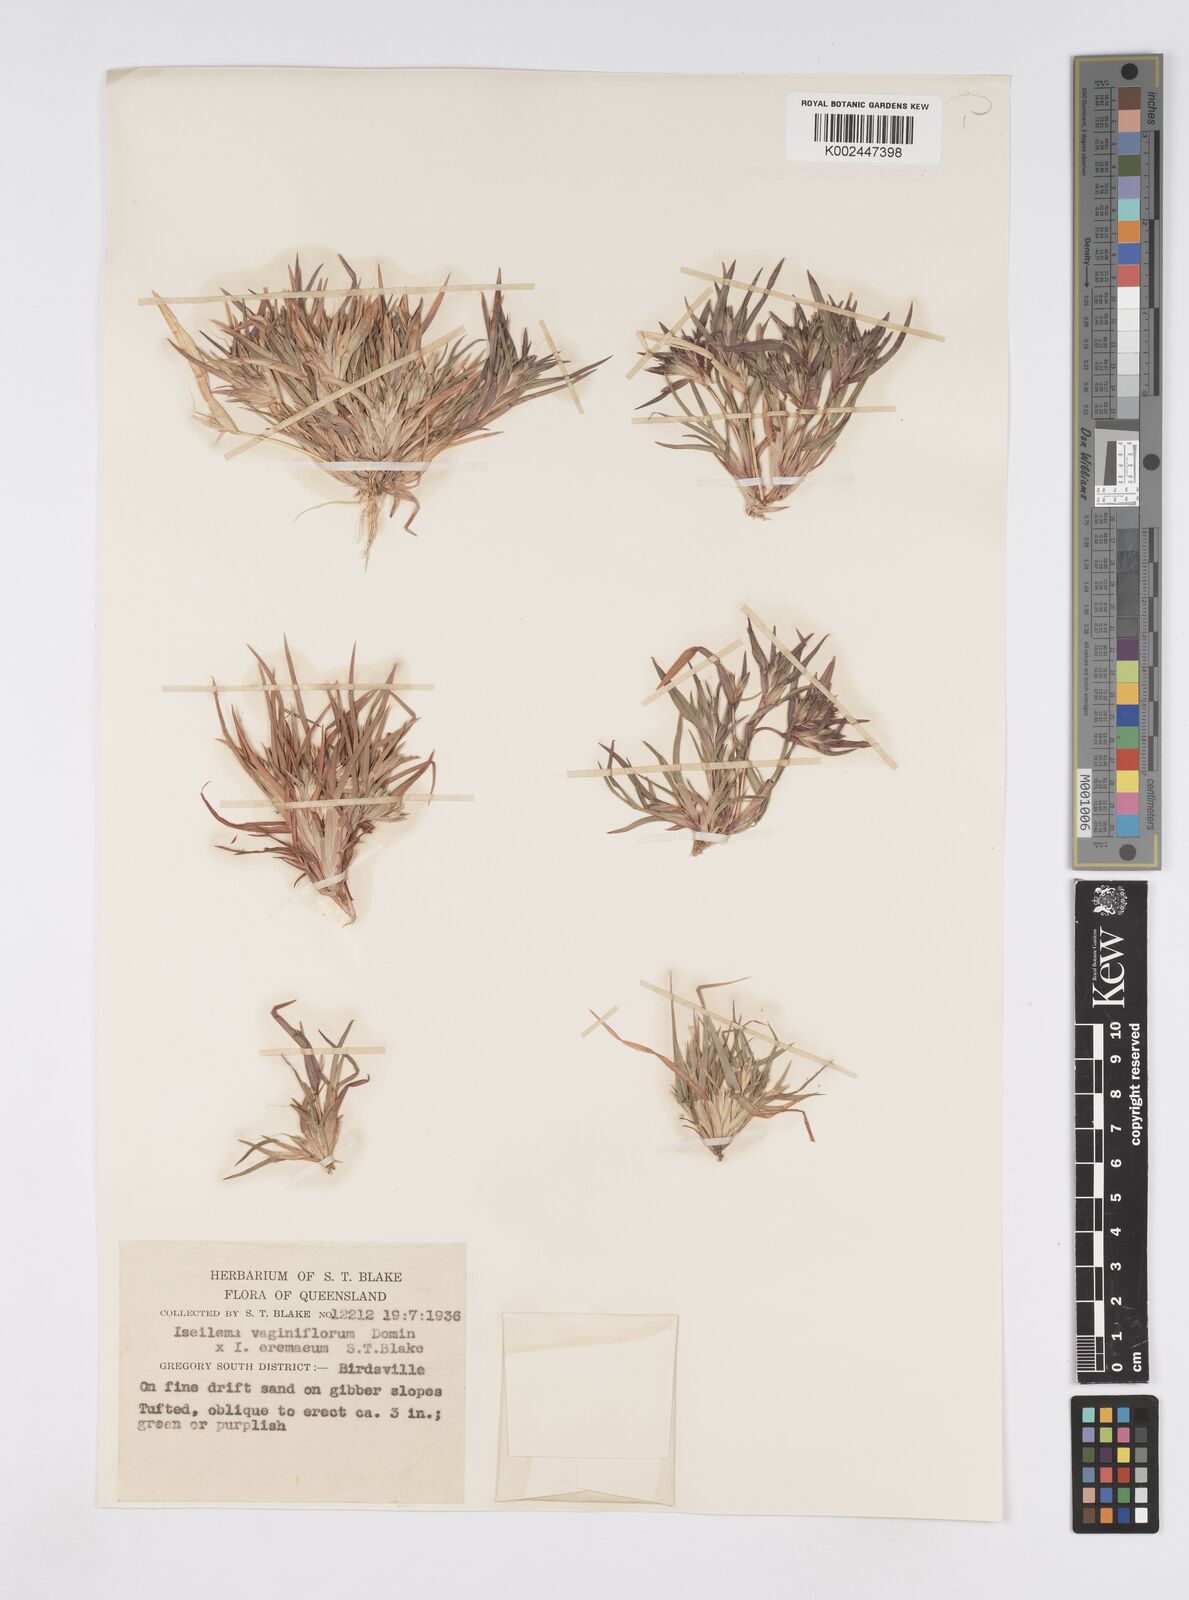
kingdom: Plantae
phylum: Tracheophyta
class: Liliopsida
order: Poales
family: Poaceae
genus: Iseilema
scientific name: Iseilema vaginiflorum
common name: Red flinders grass
